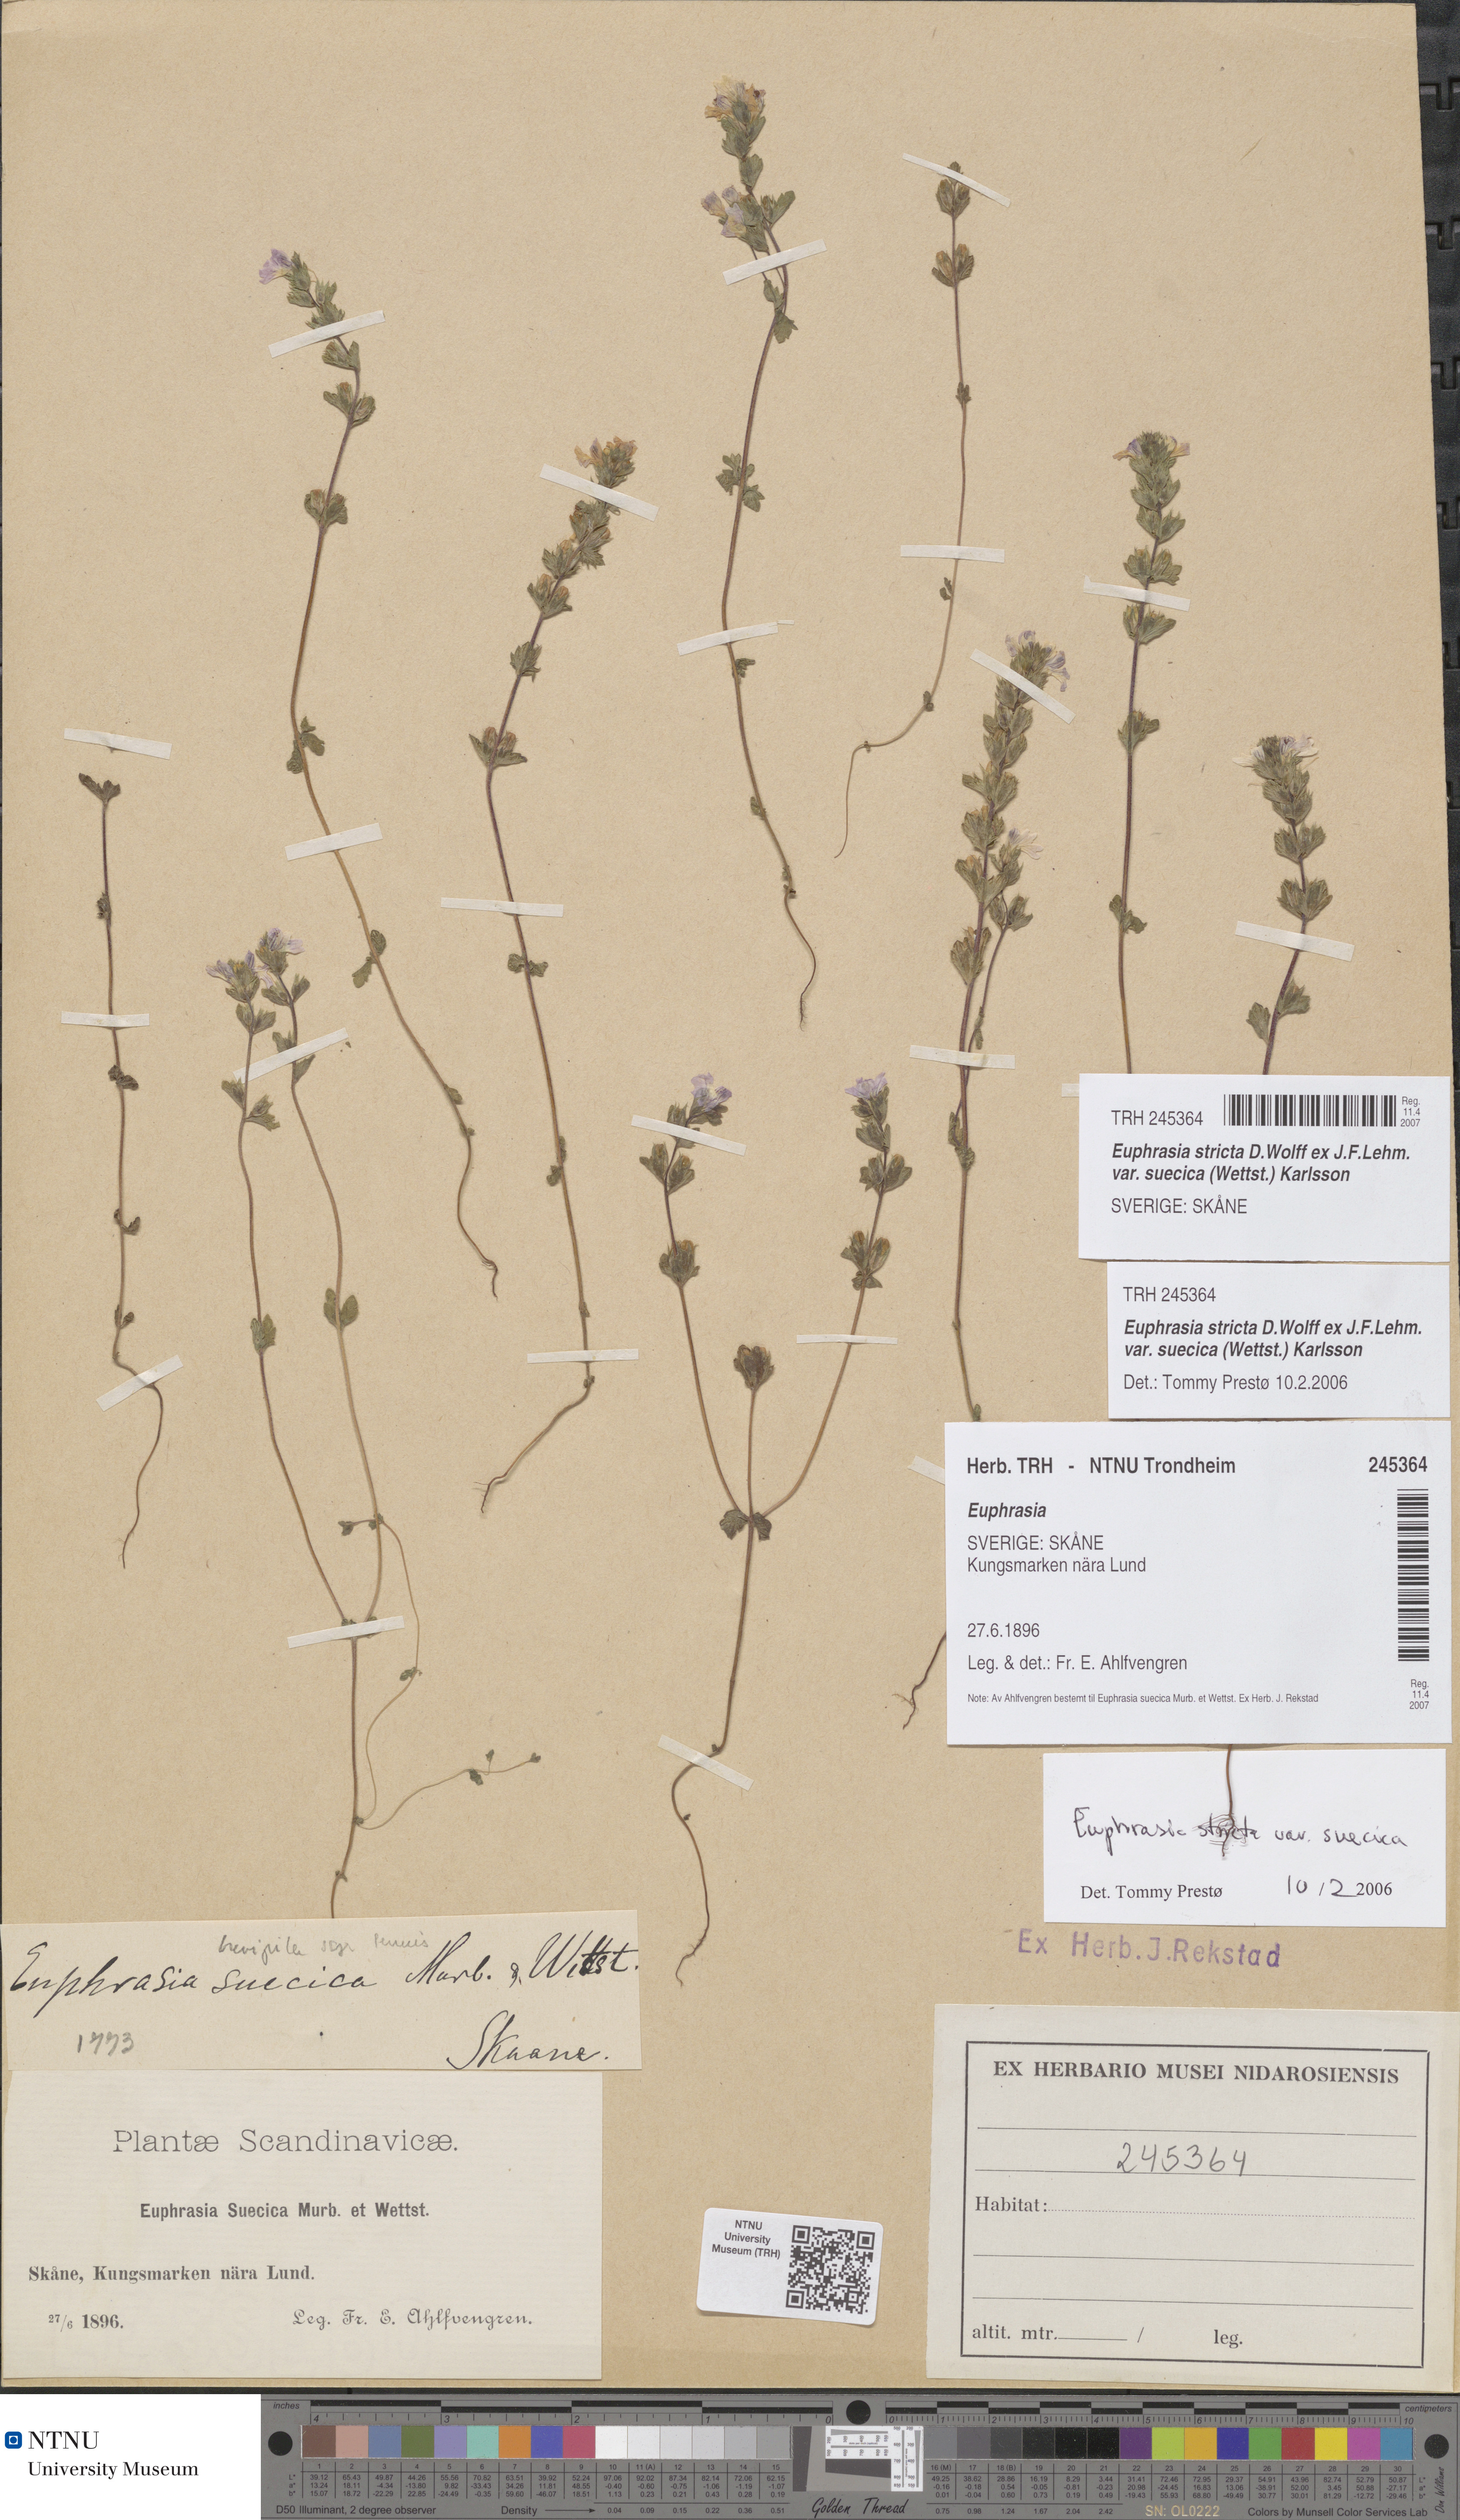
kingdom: Plantae
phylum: Tracheophyta
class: Magnoliopsida
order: Lamiales
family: Orobanchaceae
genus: Euphrasia
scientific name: Euphrasia stricta
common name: Drug eyebright
